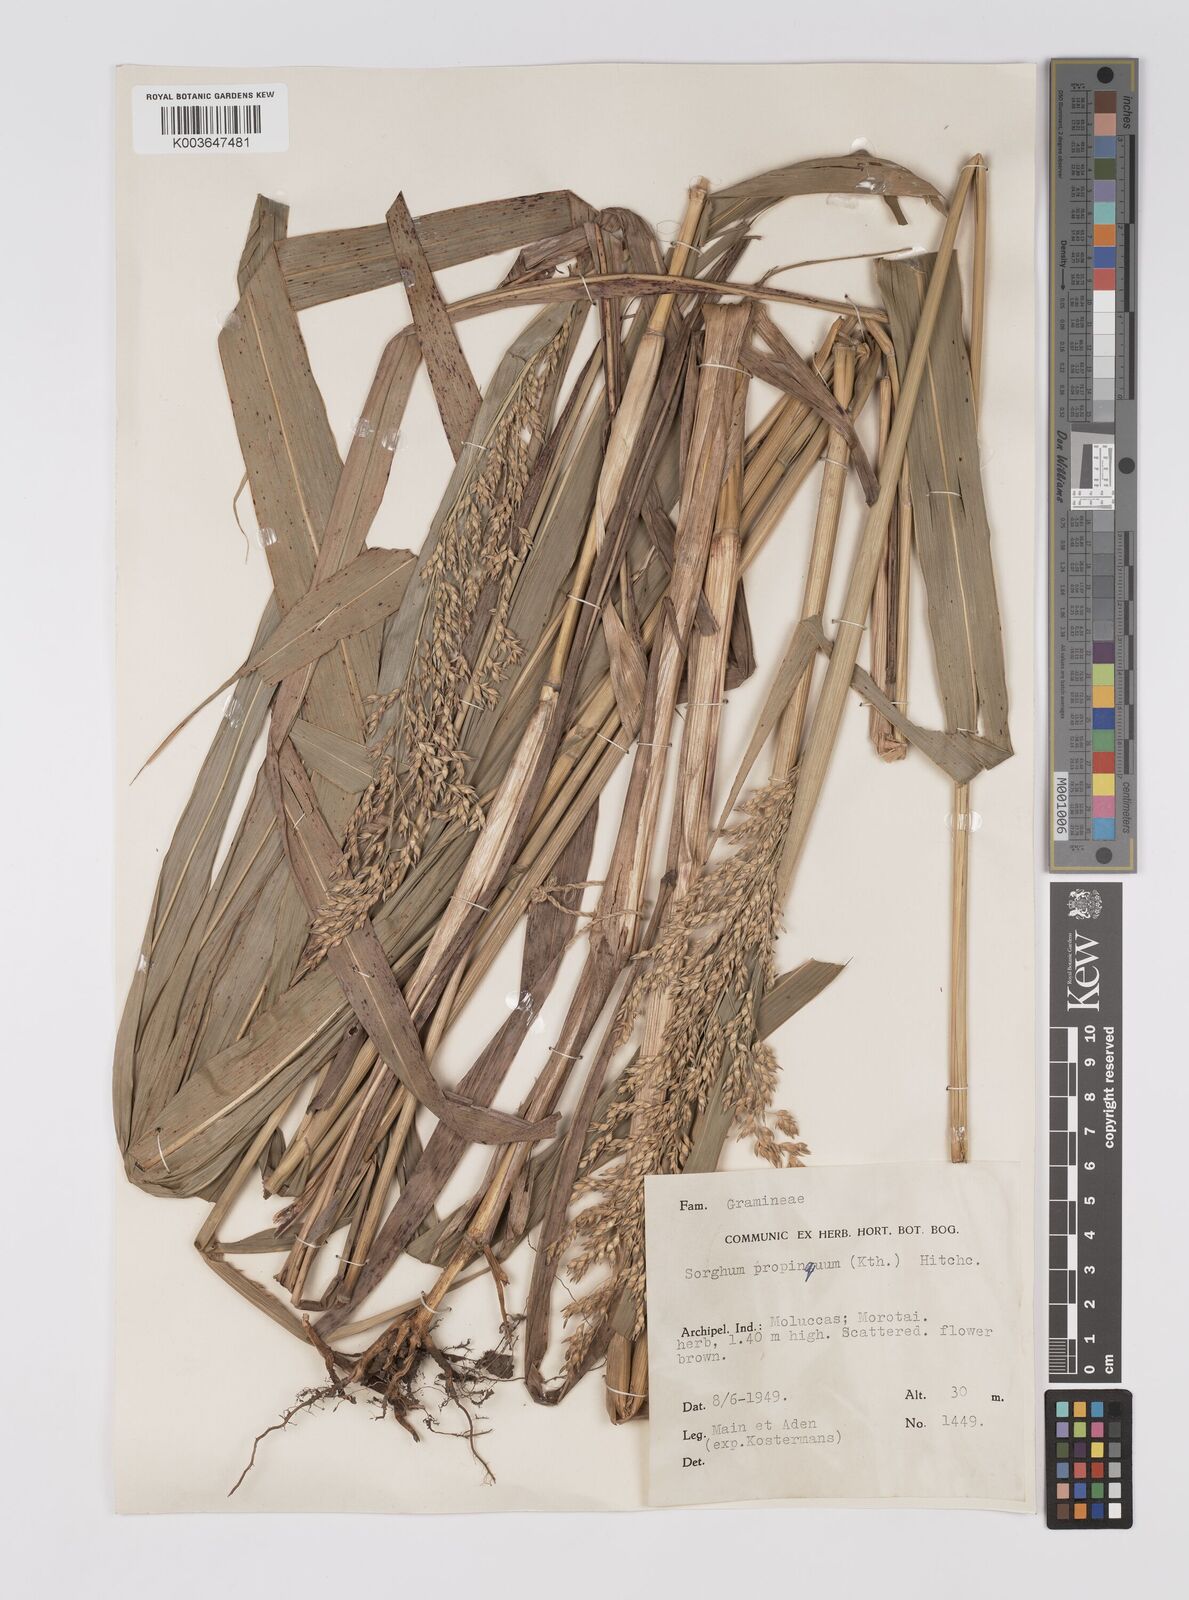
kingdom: Plantae
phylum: Tracheophyta
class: Liliopsida
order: Poales
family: Poaceae
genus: Sorghum
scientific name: Sorghum propinquum
